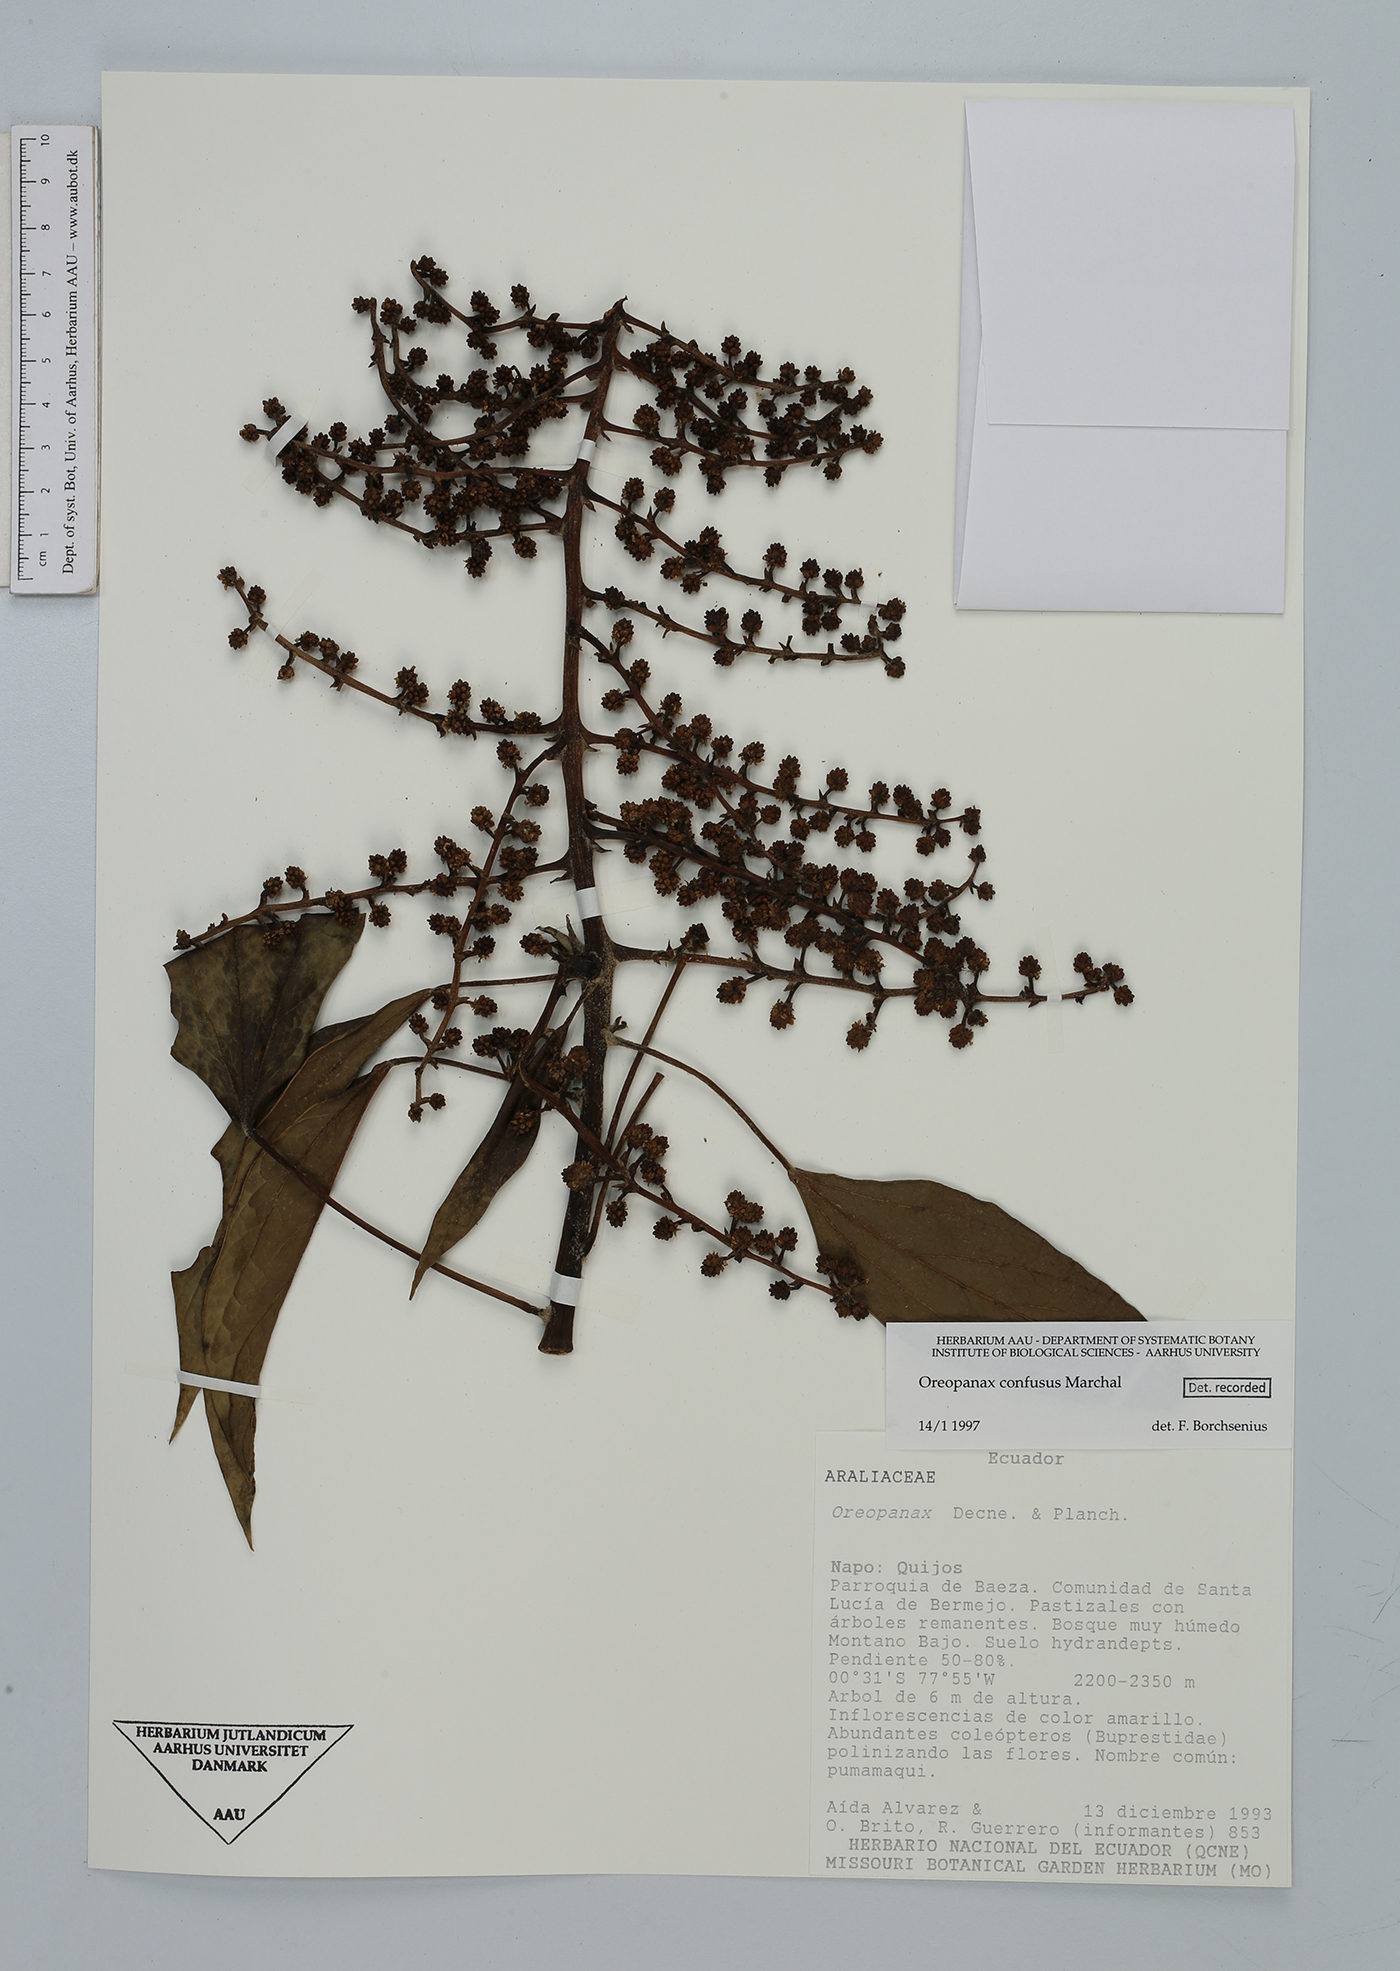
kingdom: Plantae
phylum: Tracheophyta
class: Magnoliopsida
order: Apiales
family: Araliaceae
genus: Oreopanax
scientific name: Oreopanax confusus
